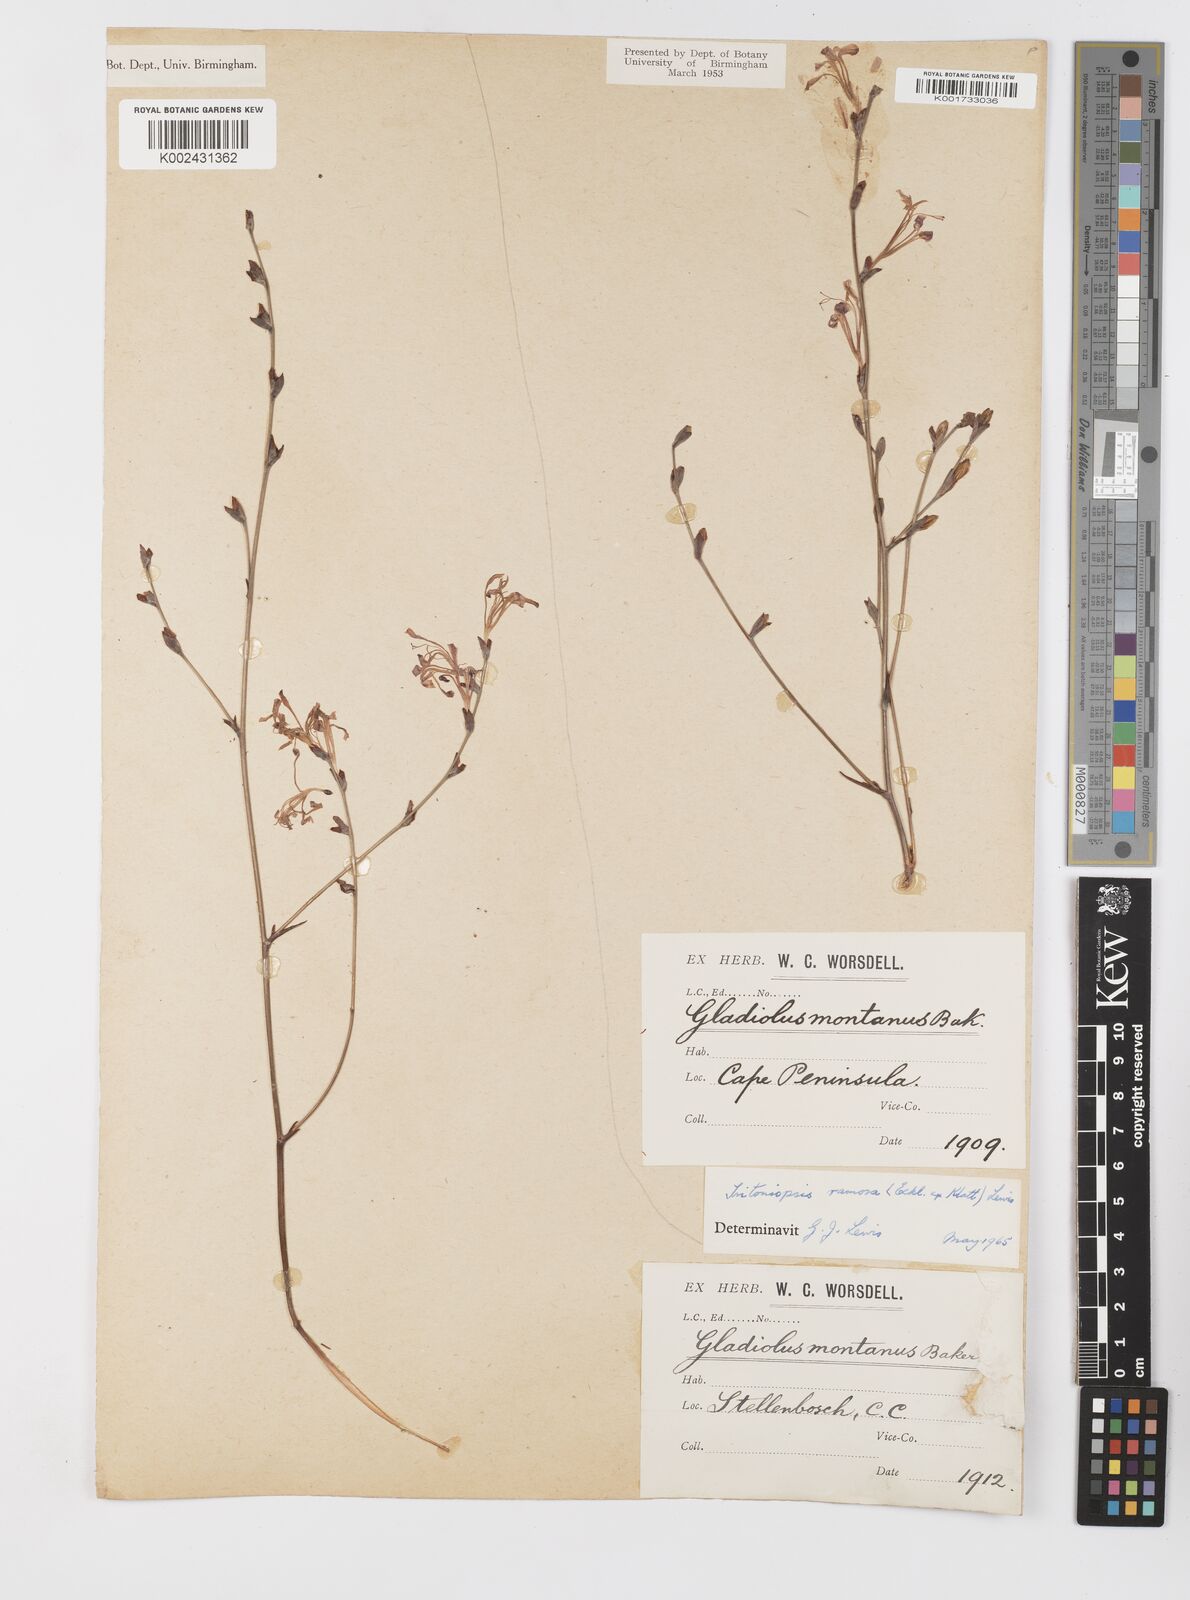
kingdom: Plantae
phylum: Tracheophyta
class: Liliopsida
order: Asparagales
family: Iridaceae
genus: Tritoniopsis
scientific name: Tritoniopsis ramosa
